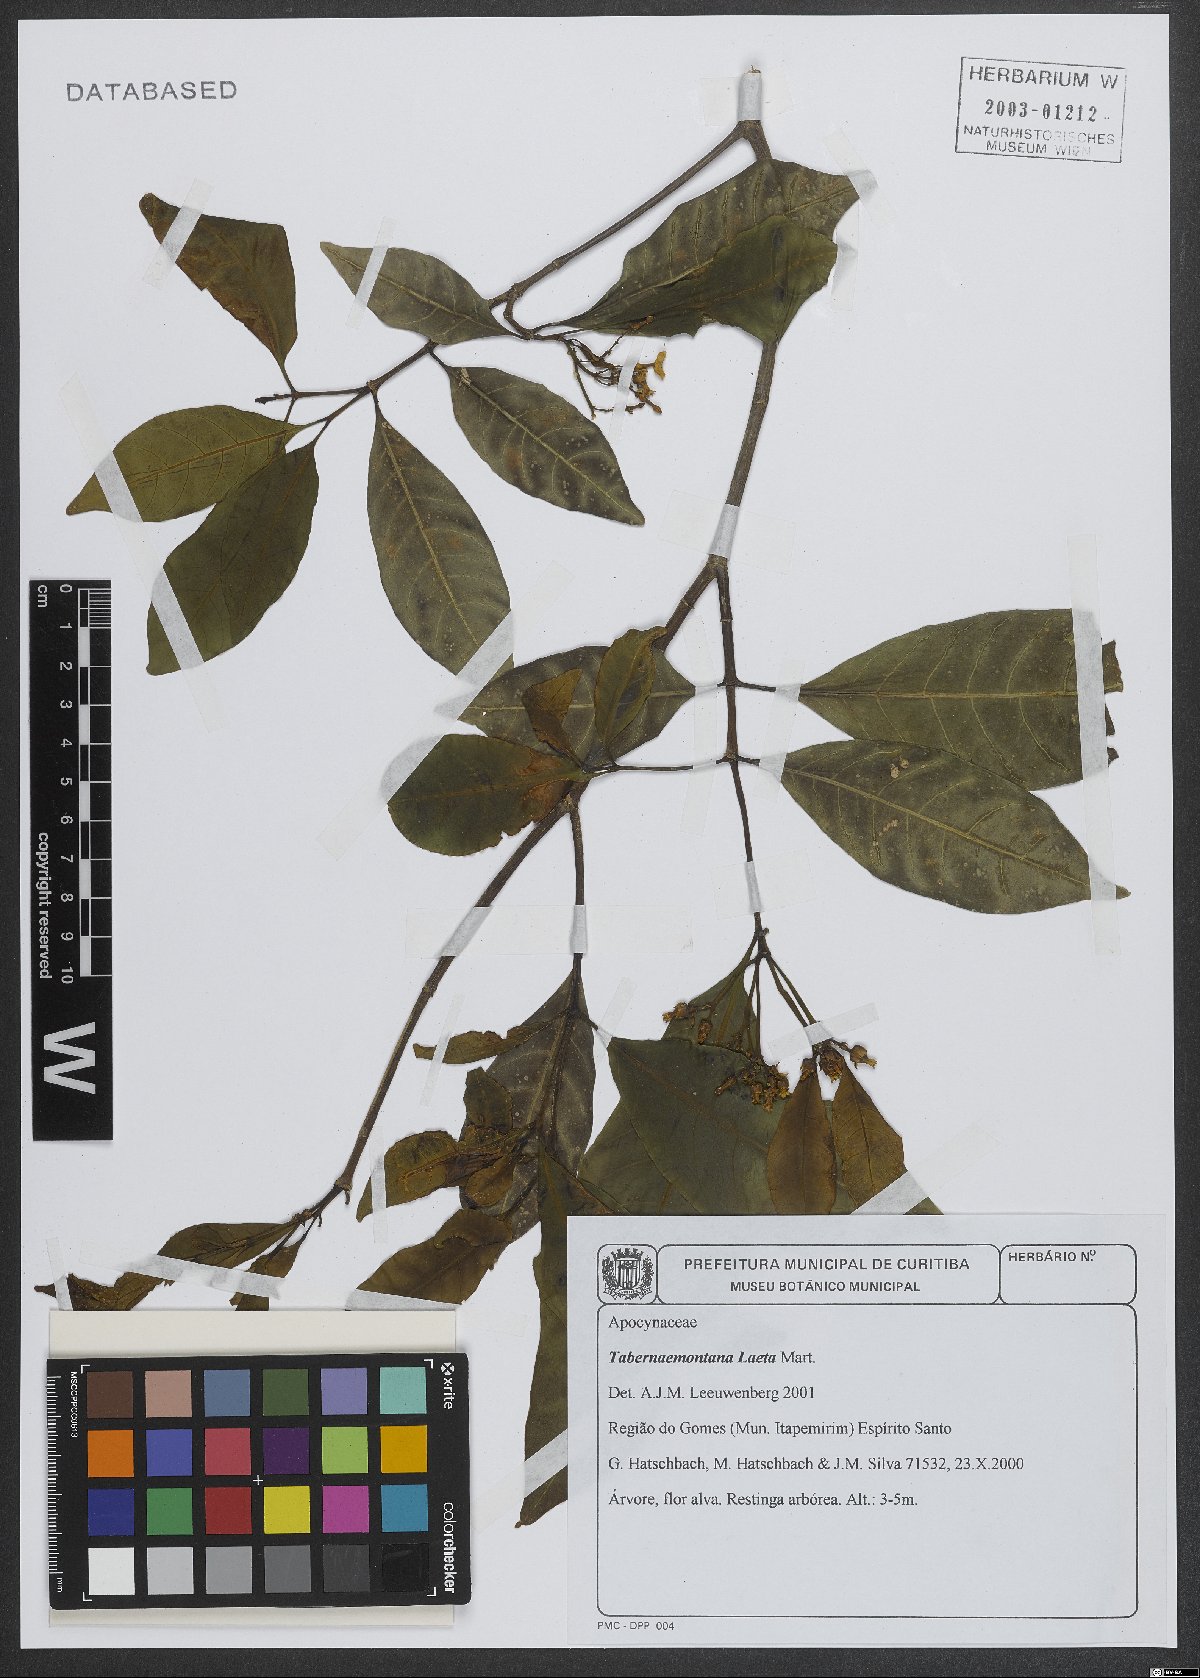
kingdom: Plantae
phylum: Tracheophyta
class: Magnoliopsida
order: Gentianales
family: Apocynaceae
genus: Tabernaemontana
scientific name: Tabernaemontana laeta
